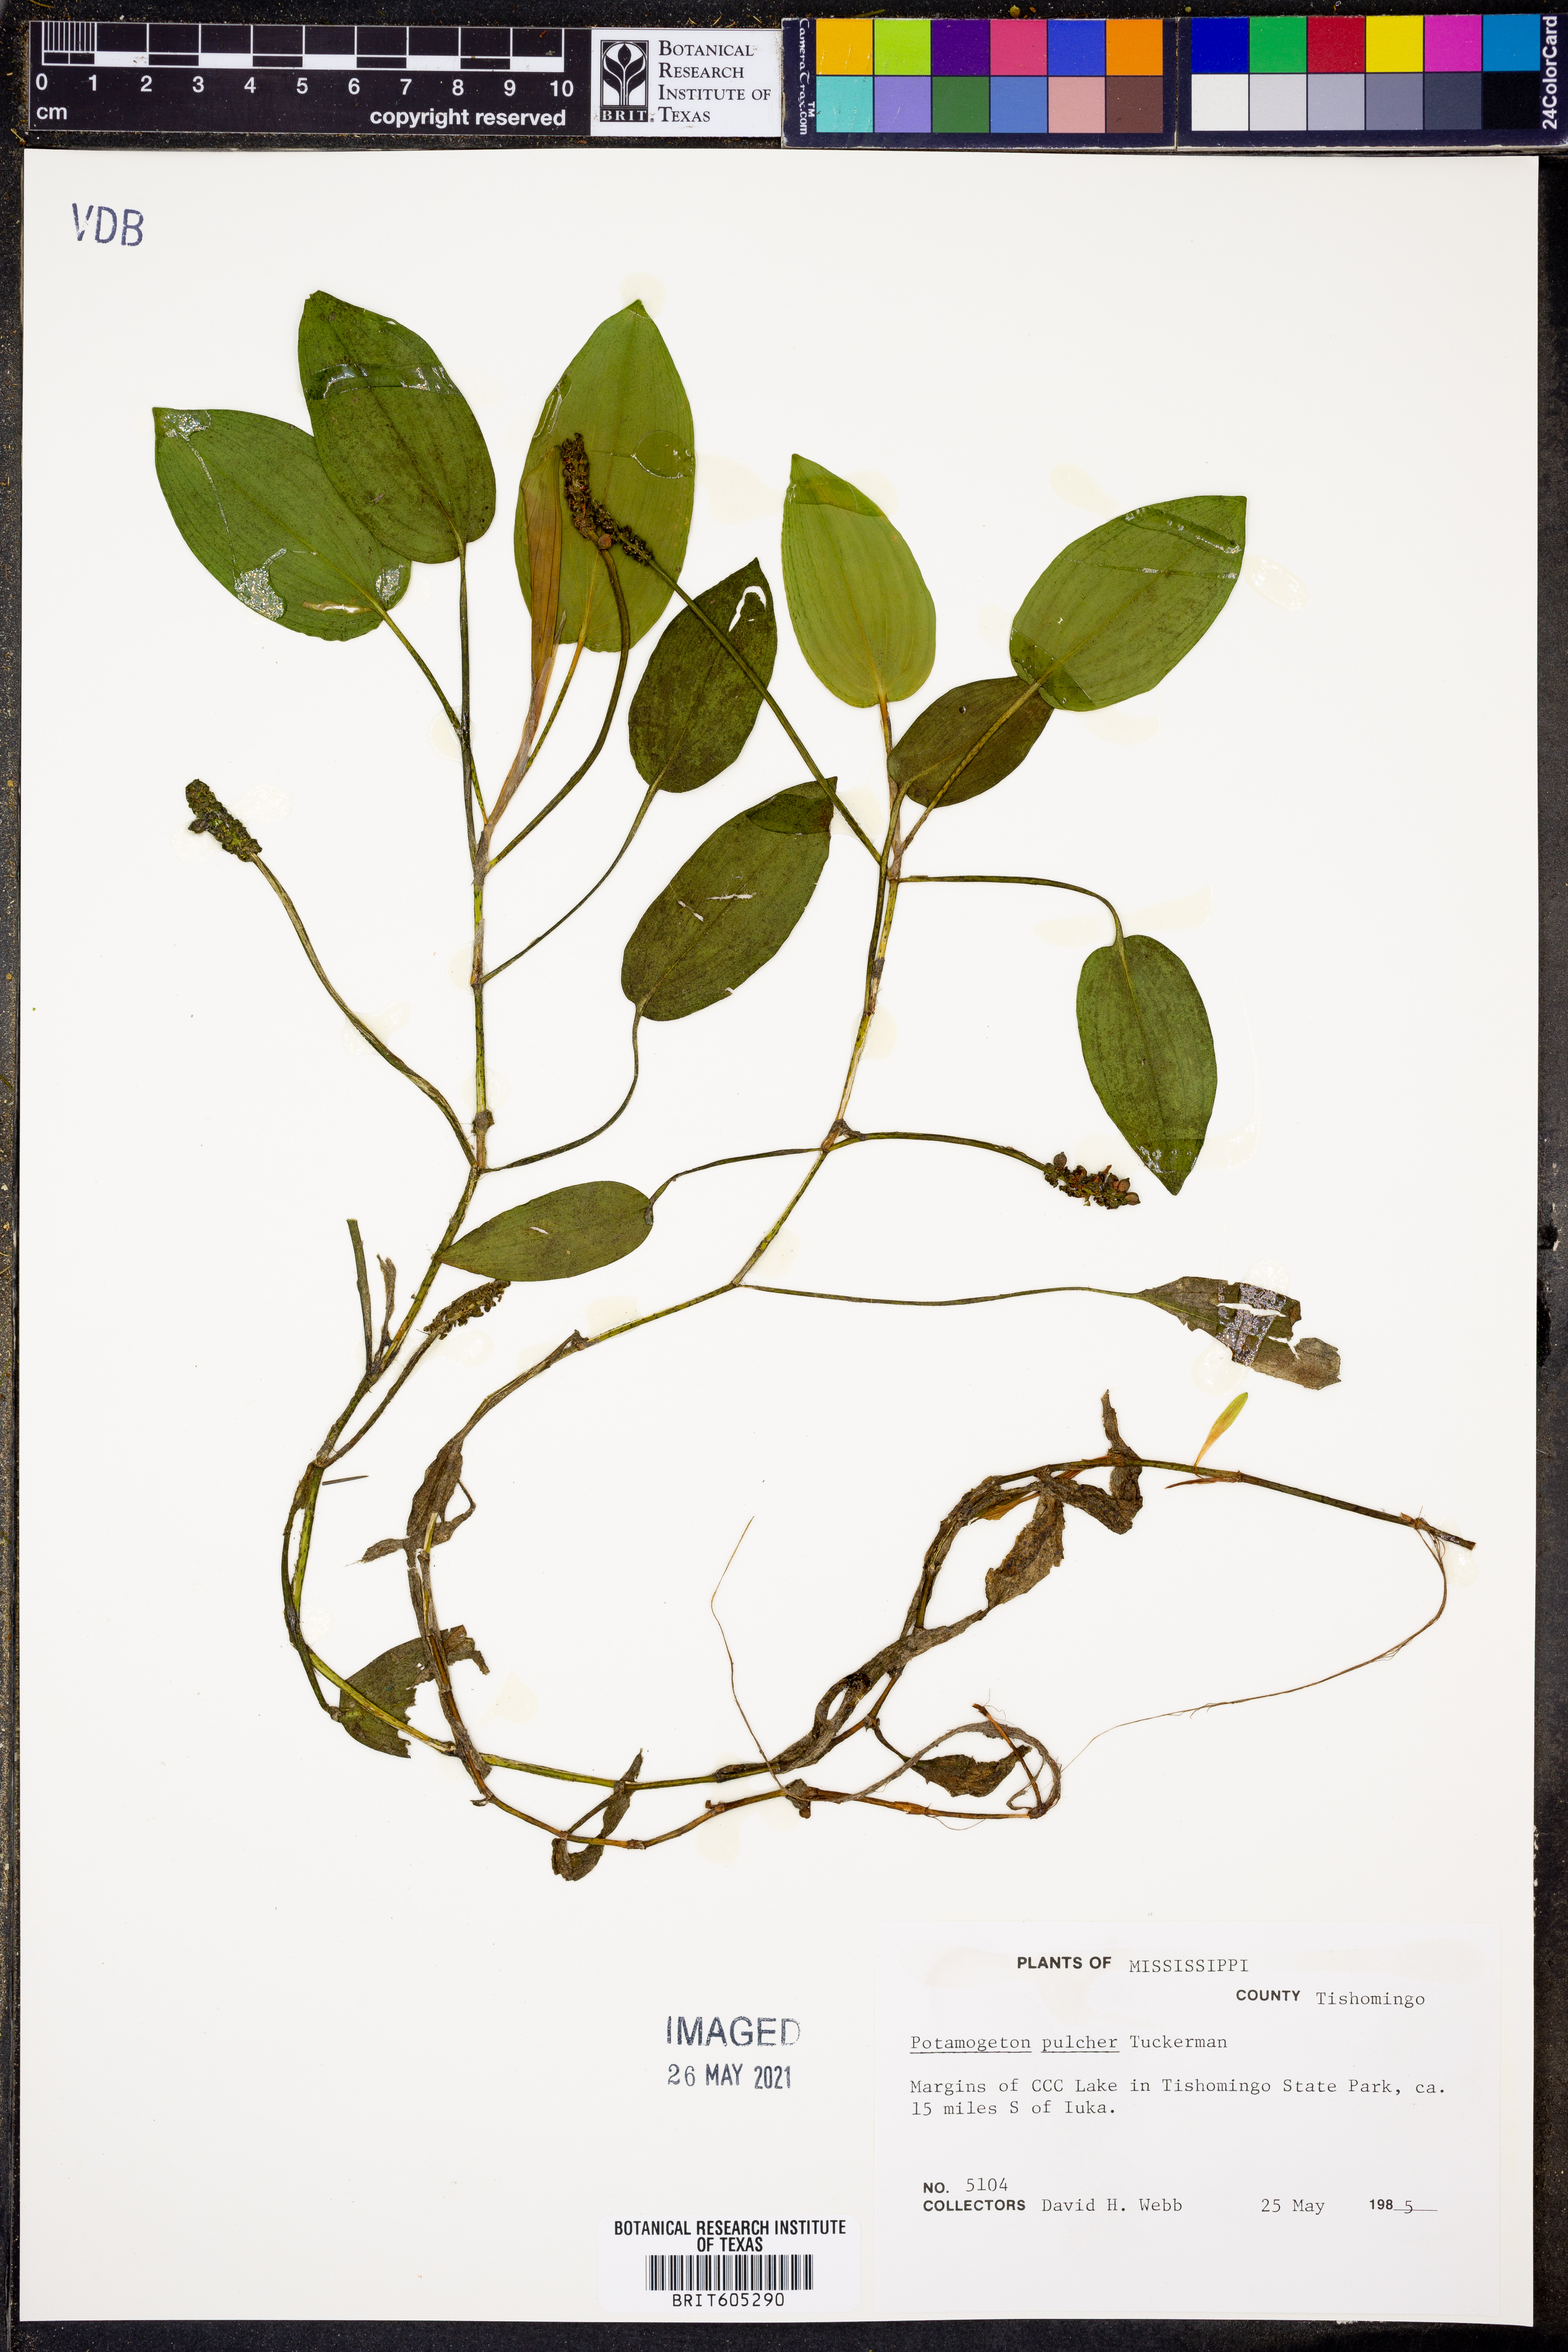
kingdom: Plantae
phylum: Tracheophyta
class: Liliopsida
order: Alismatales
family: Potamogetonaceae
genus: Potamogeton
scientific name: Potamogeton pulcher
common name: Heart-leaved pondweed
